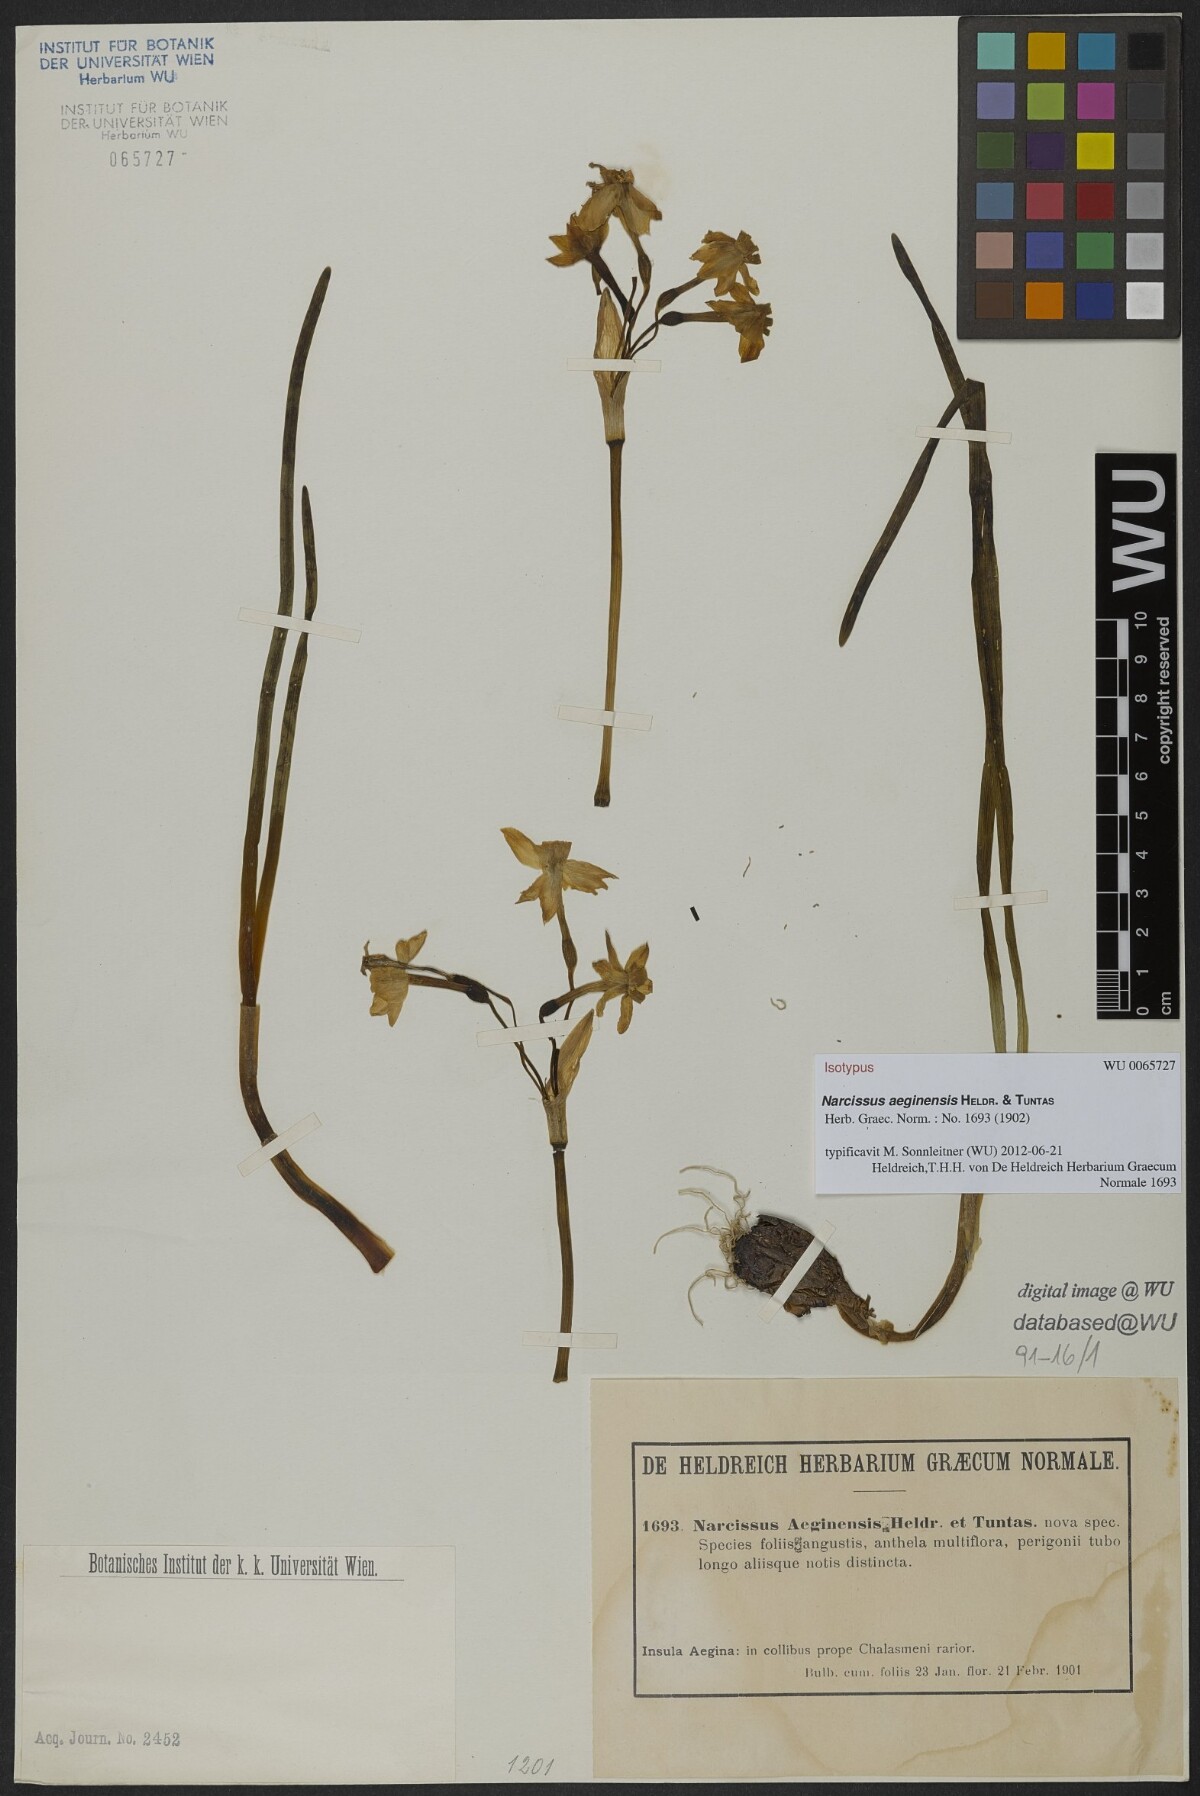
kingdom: Plantae
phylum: Tracheophyta
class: Liliopsida
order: Asparagales
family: Amaryllidaceae
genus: Narcissus
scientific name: Narcissus
